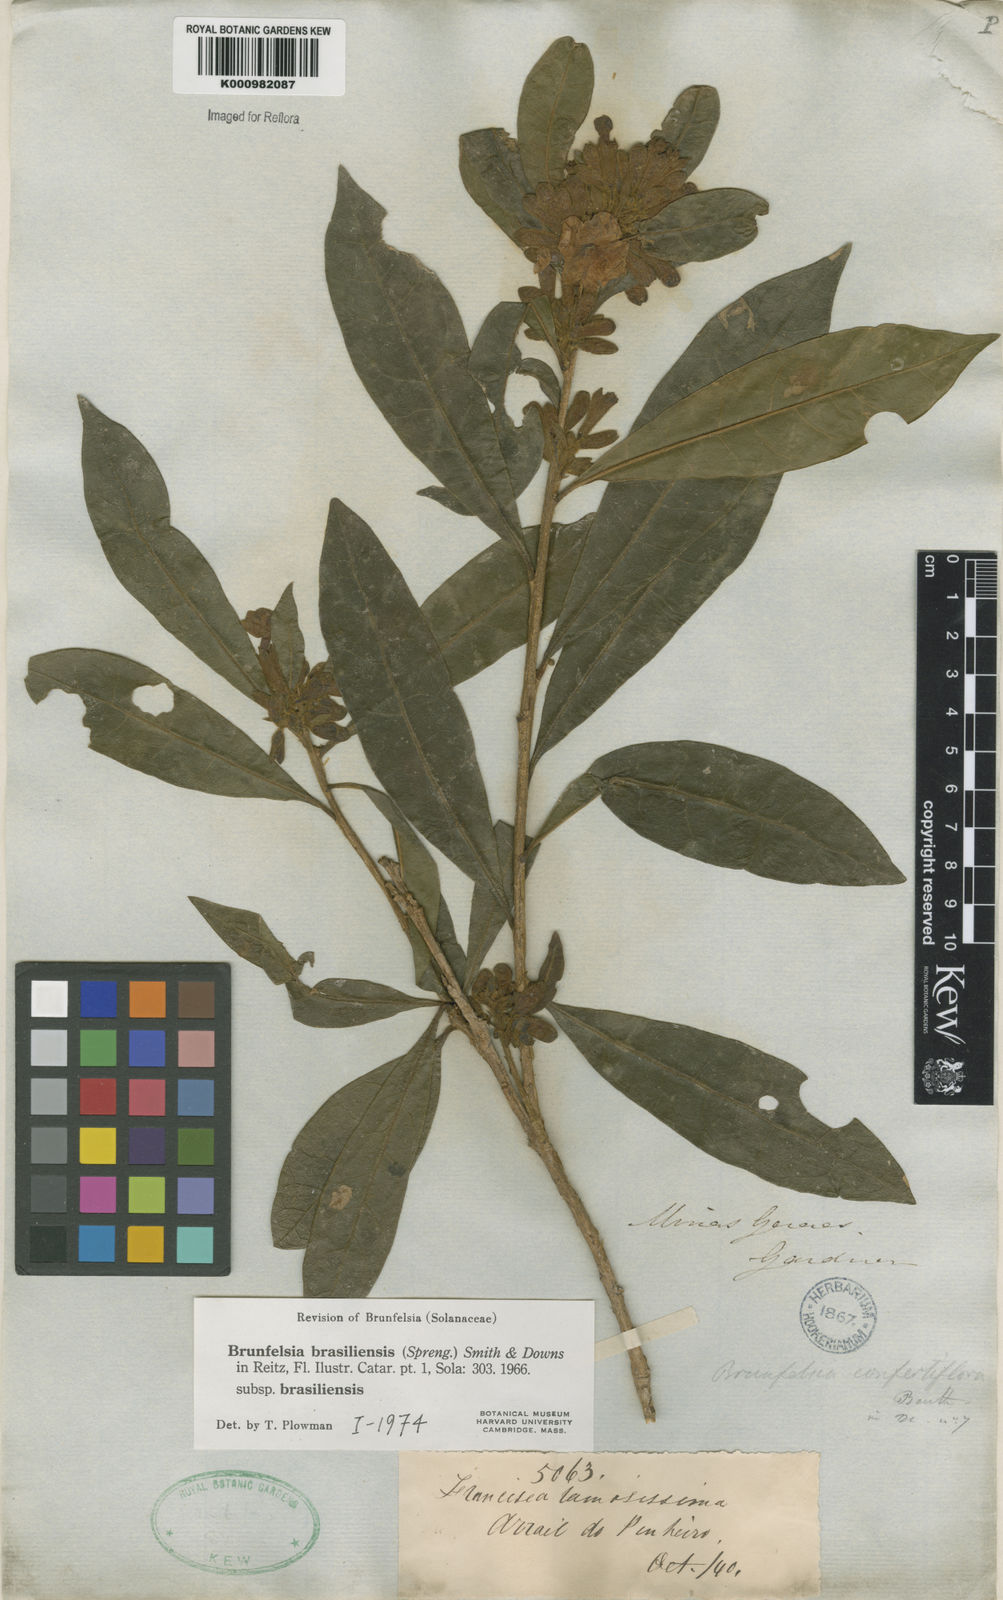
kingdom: Plantae
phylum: Tracheophyta
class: Magnoliopsida
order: Solanales
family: Solanaceae
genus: Brunfelsia
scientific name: Brunfelsia brasiliensis
